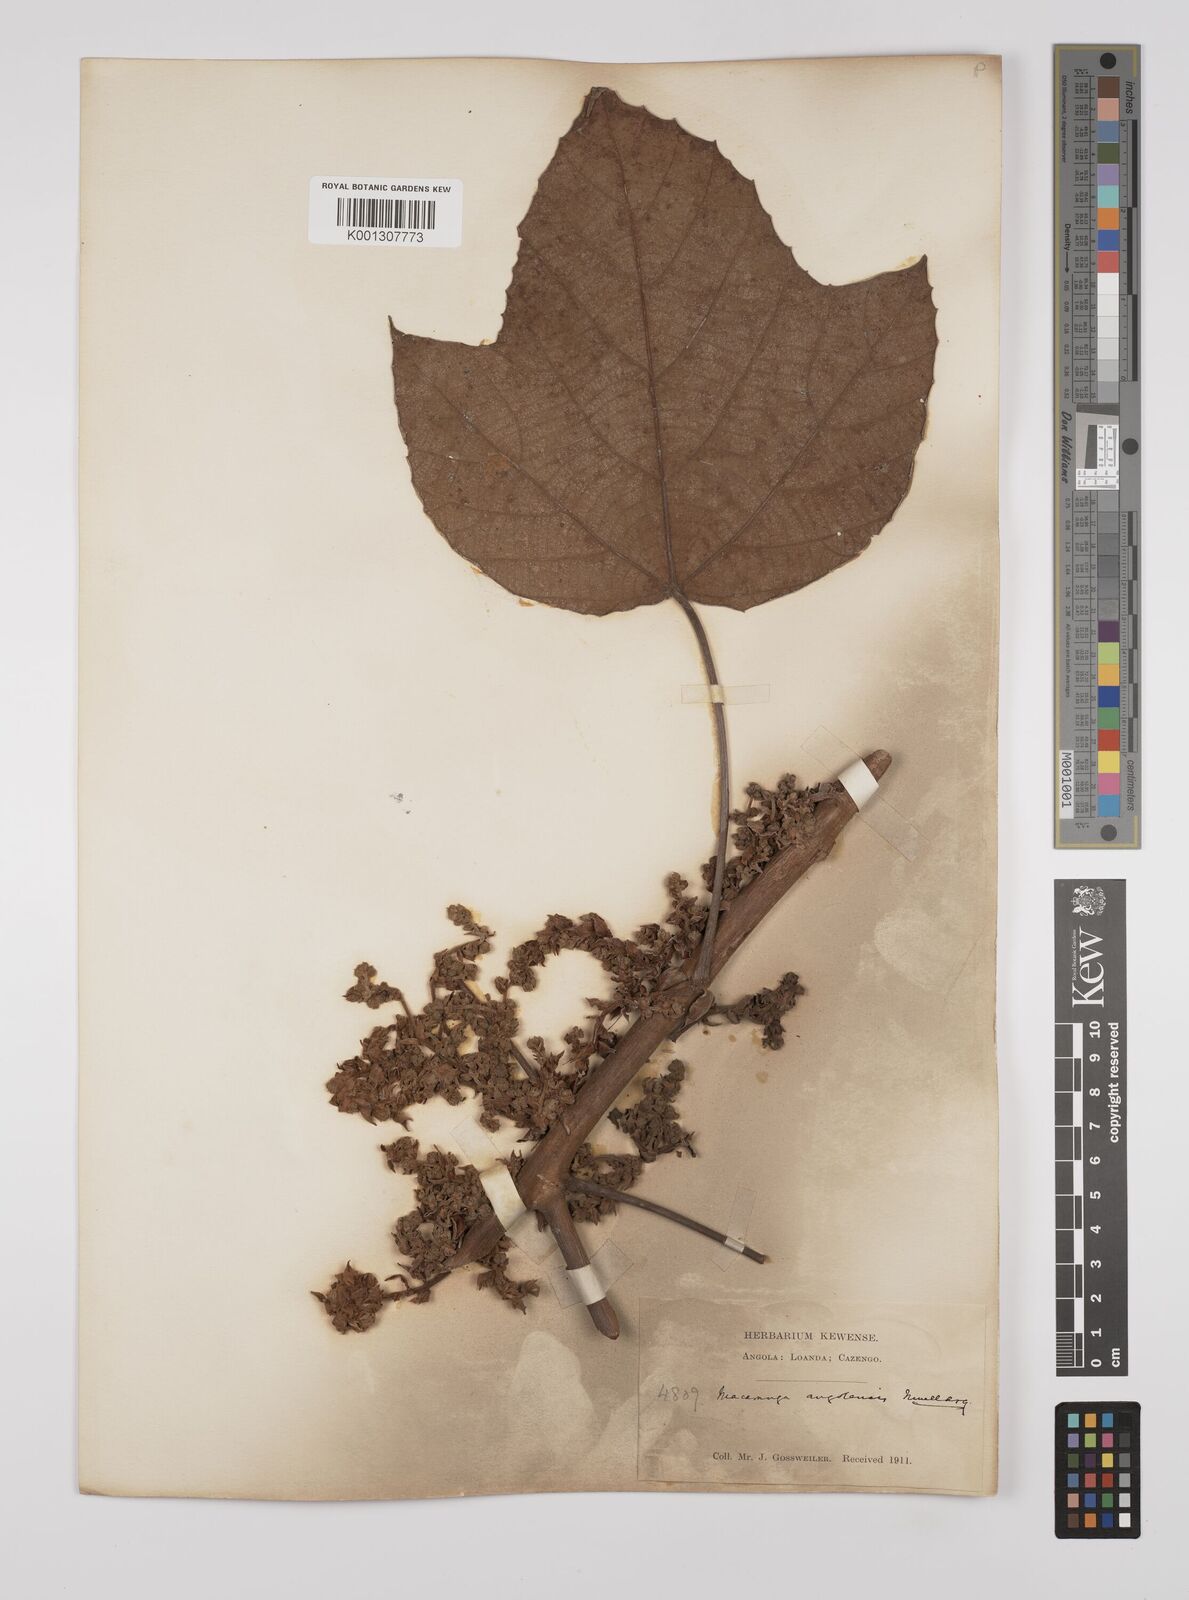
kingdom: Plantae
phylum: Tracheophyta
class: Magnoliopsida
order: Malpighiales
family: Euphorbiaceae
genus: Macaranga
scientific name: Macaranga
